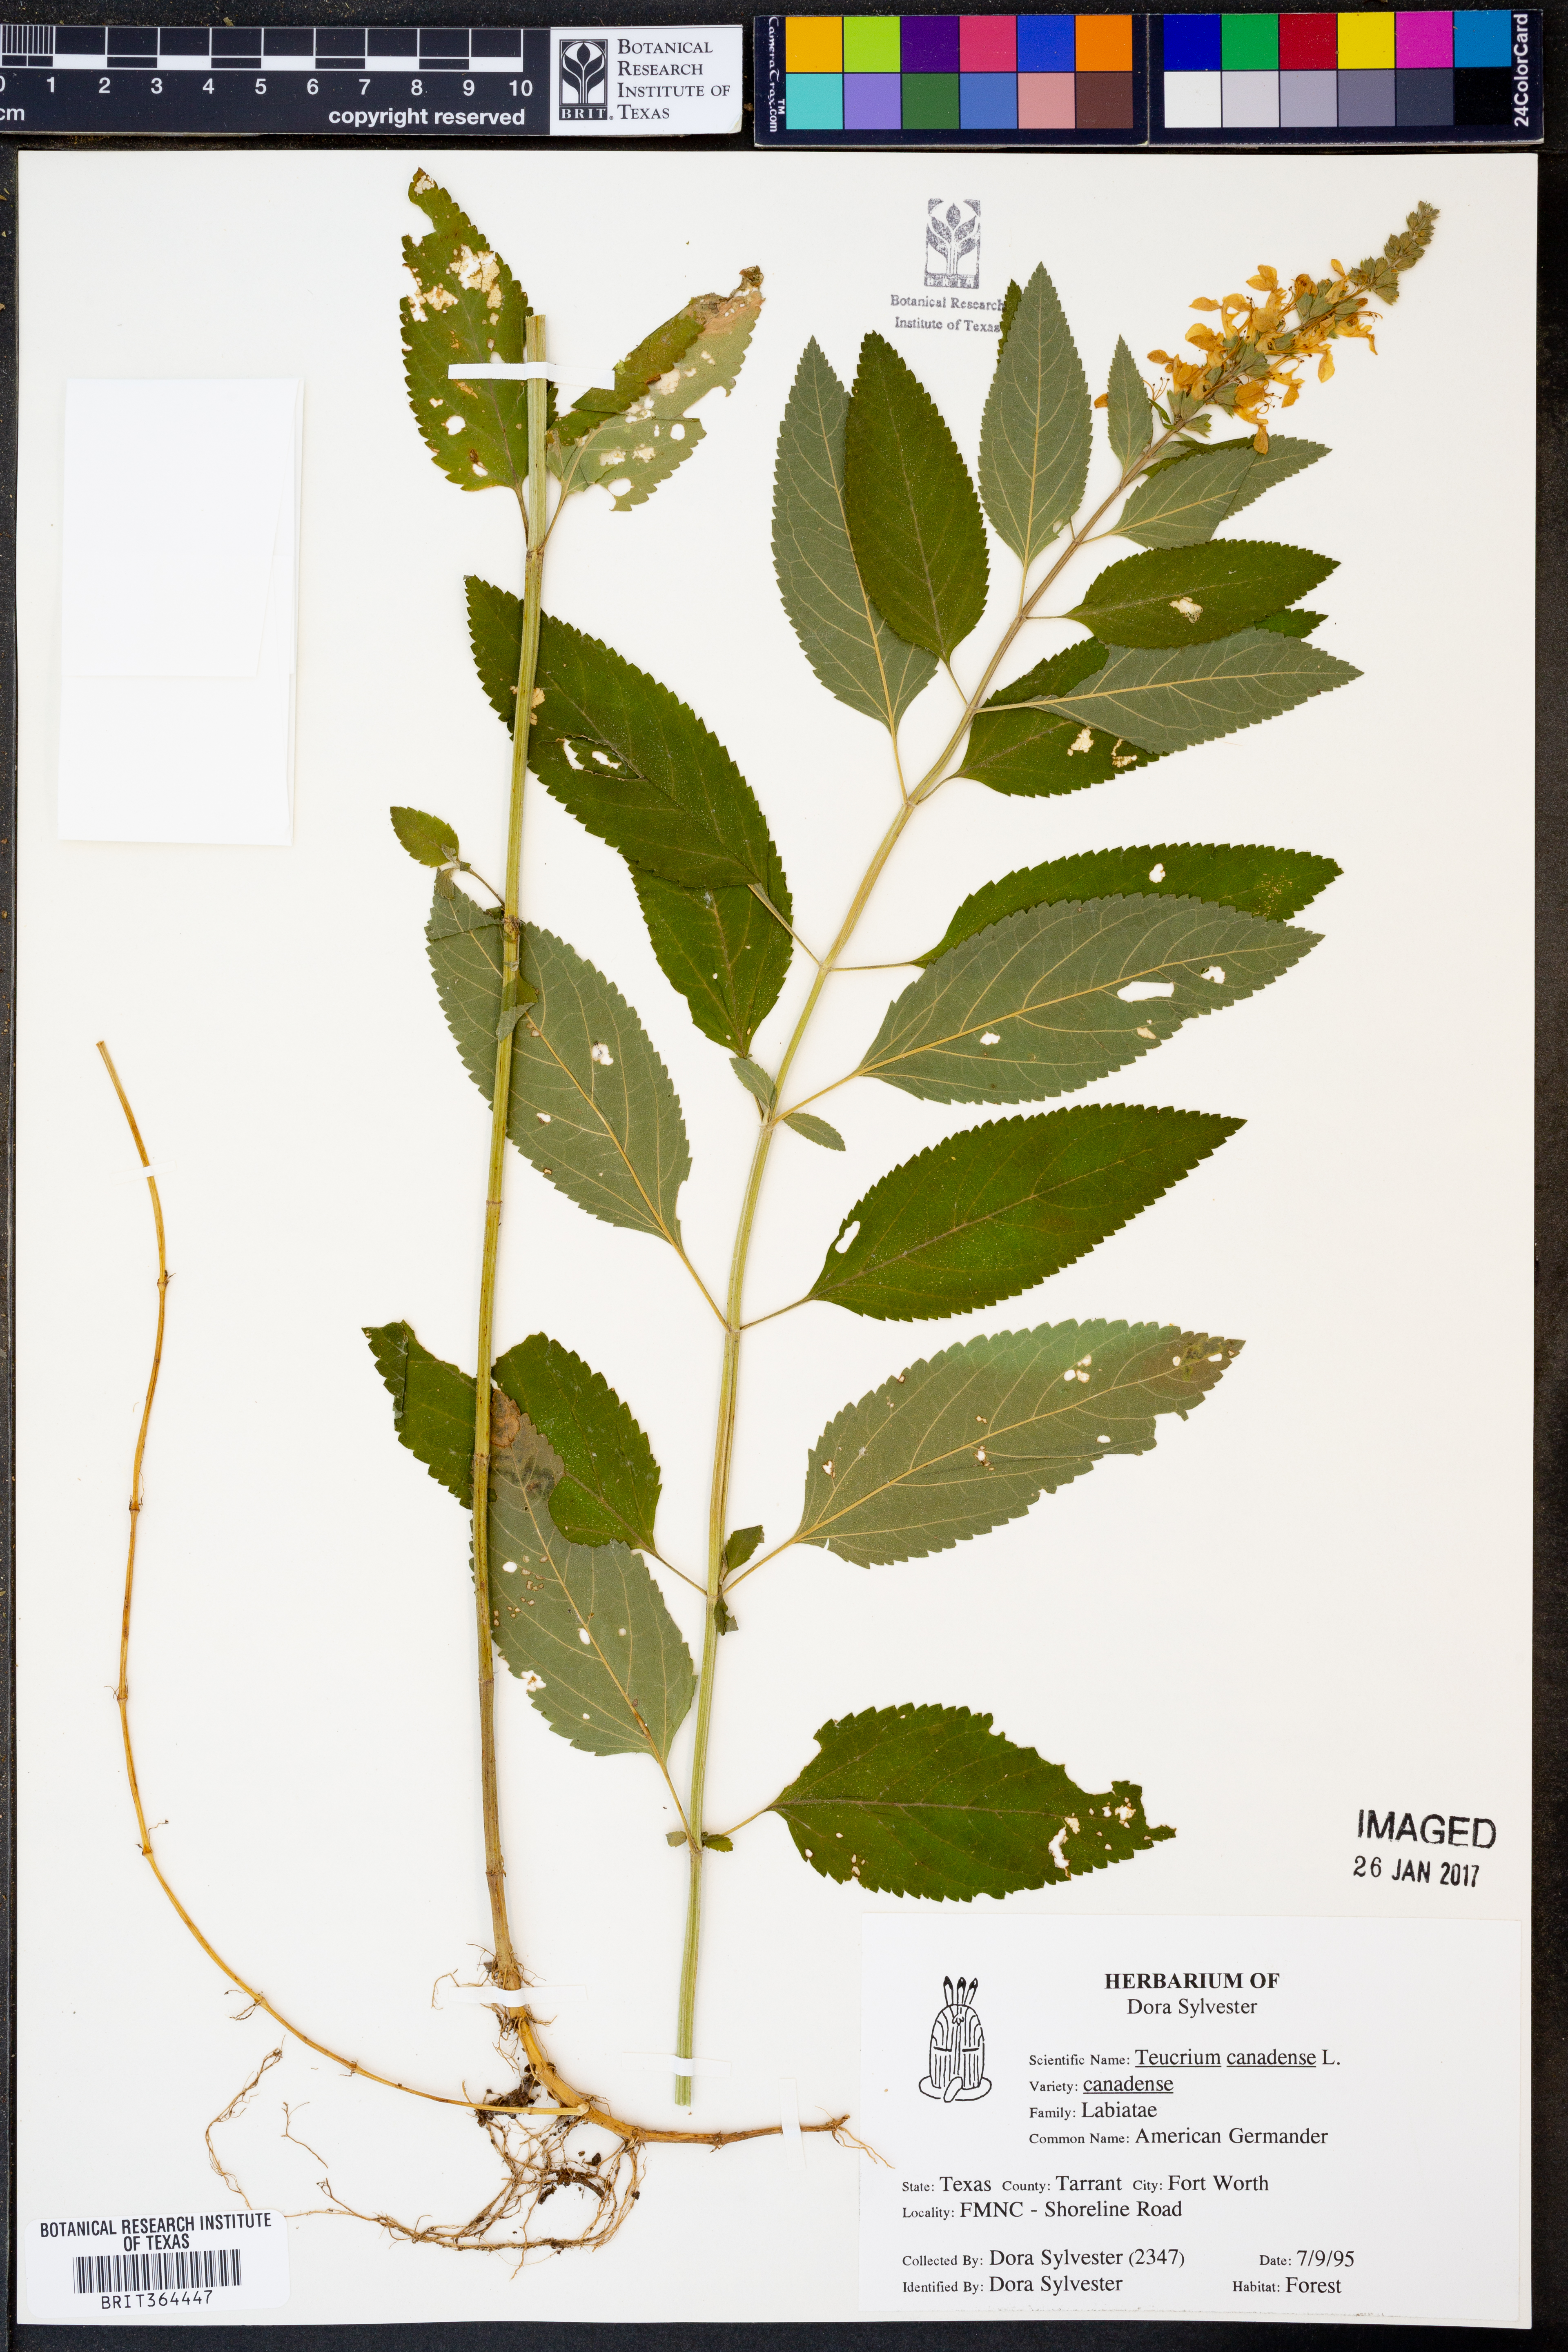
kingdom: Plantae
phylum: Tracheophyta
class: Magnoliopsida
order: Lamiales
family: Lamiaceae
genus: Teucrium
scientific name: Teucrium canadense
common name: American germander
